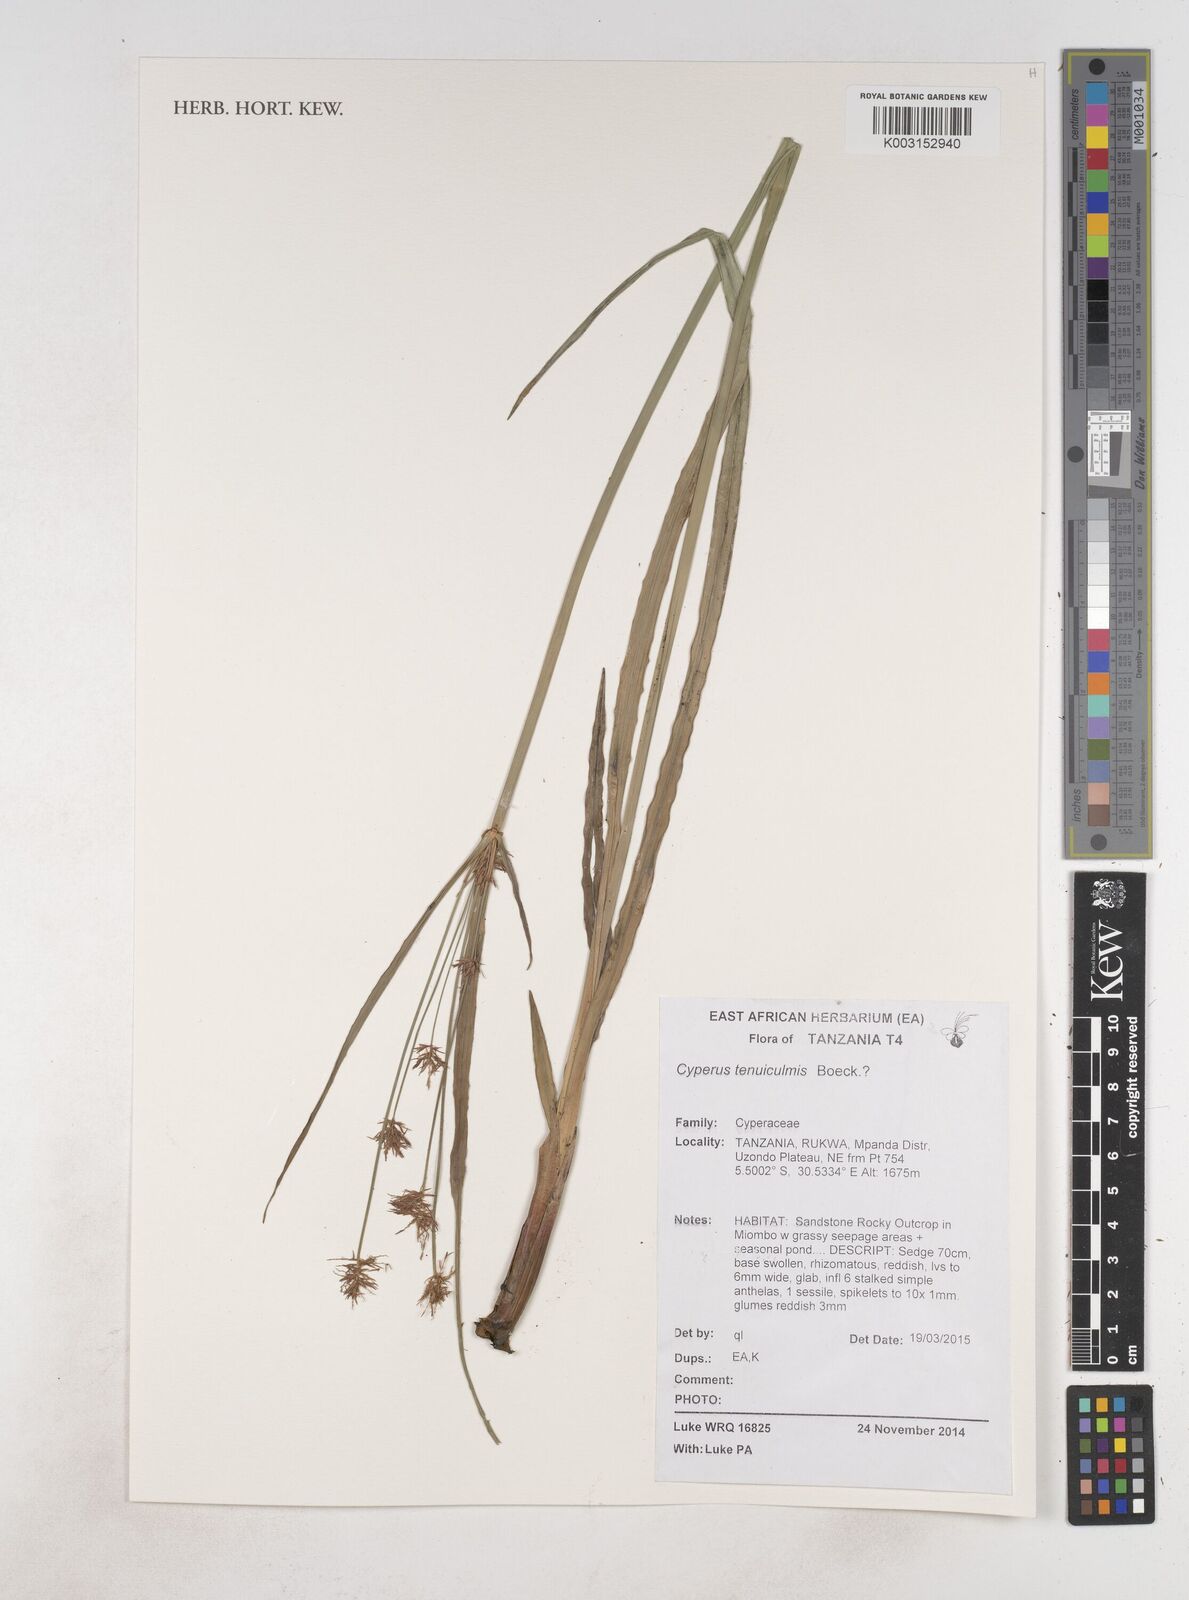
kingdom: Plantae
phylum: Tracheophyta
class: Liliopsida
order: Poales
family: Cyperaceae
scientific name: Cyperaceae
